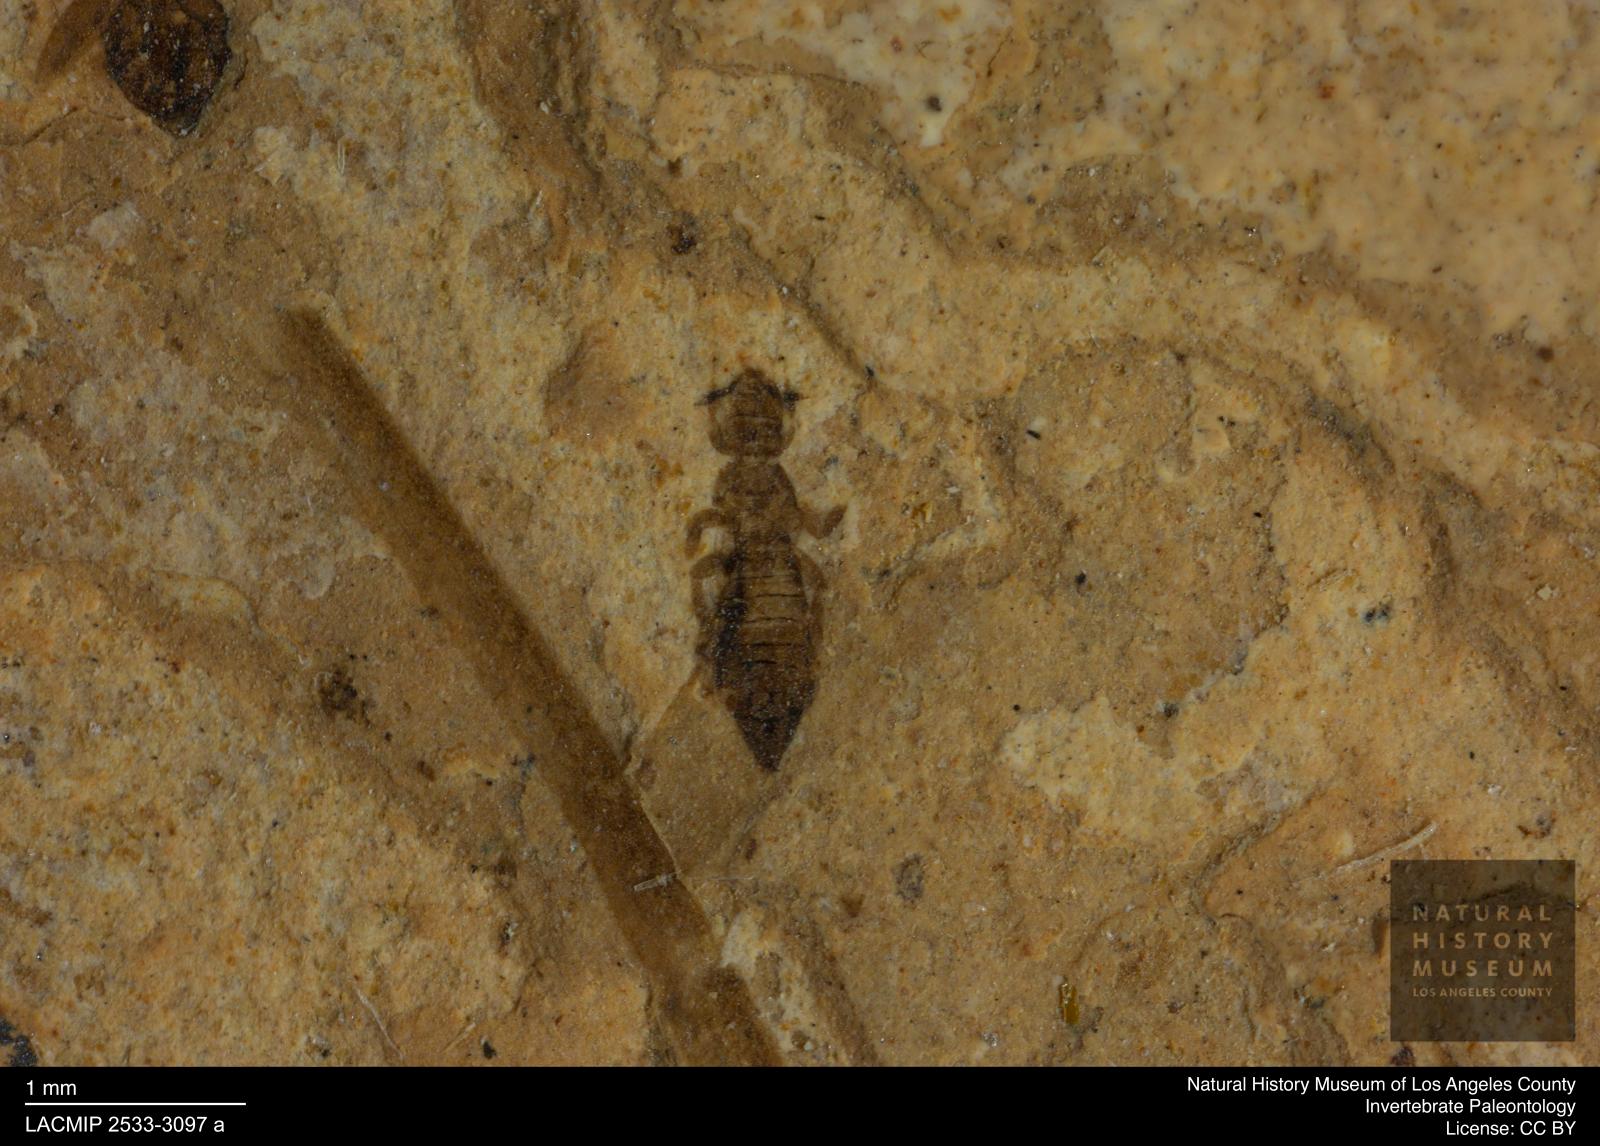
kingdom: Animalia
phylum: Arthropoda
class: Insecta
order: Thysanoptera
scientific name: Thysanoptera
